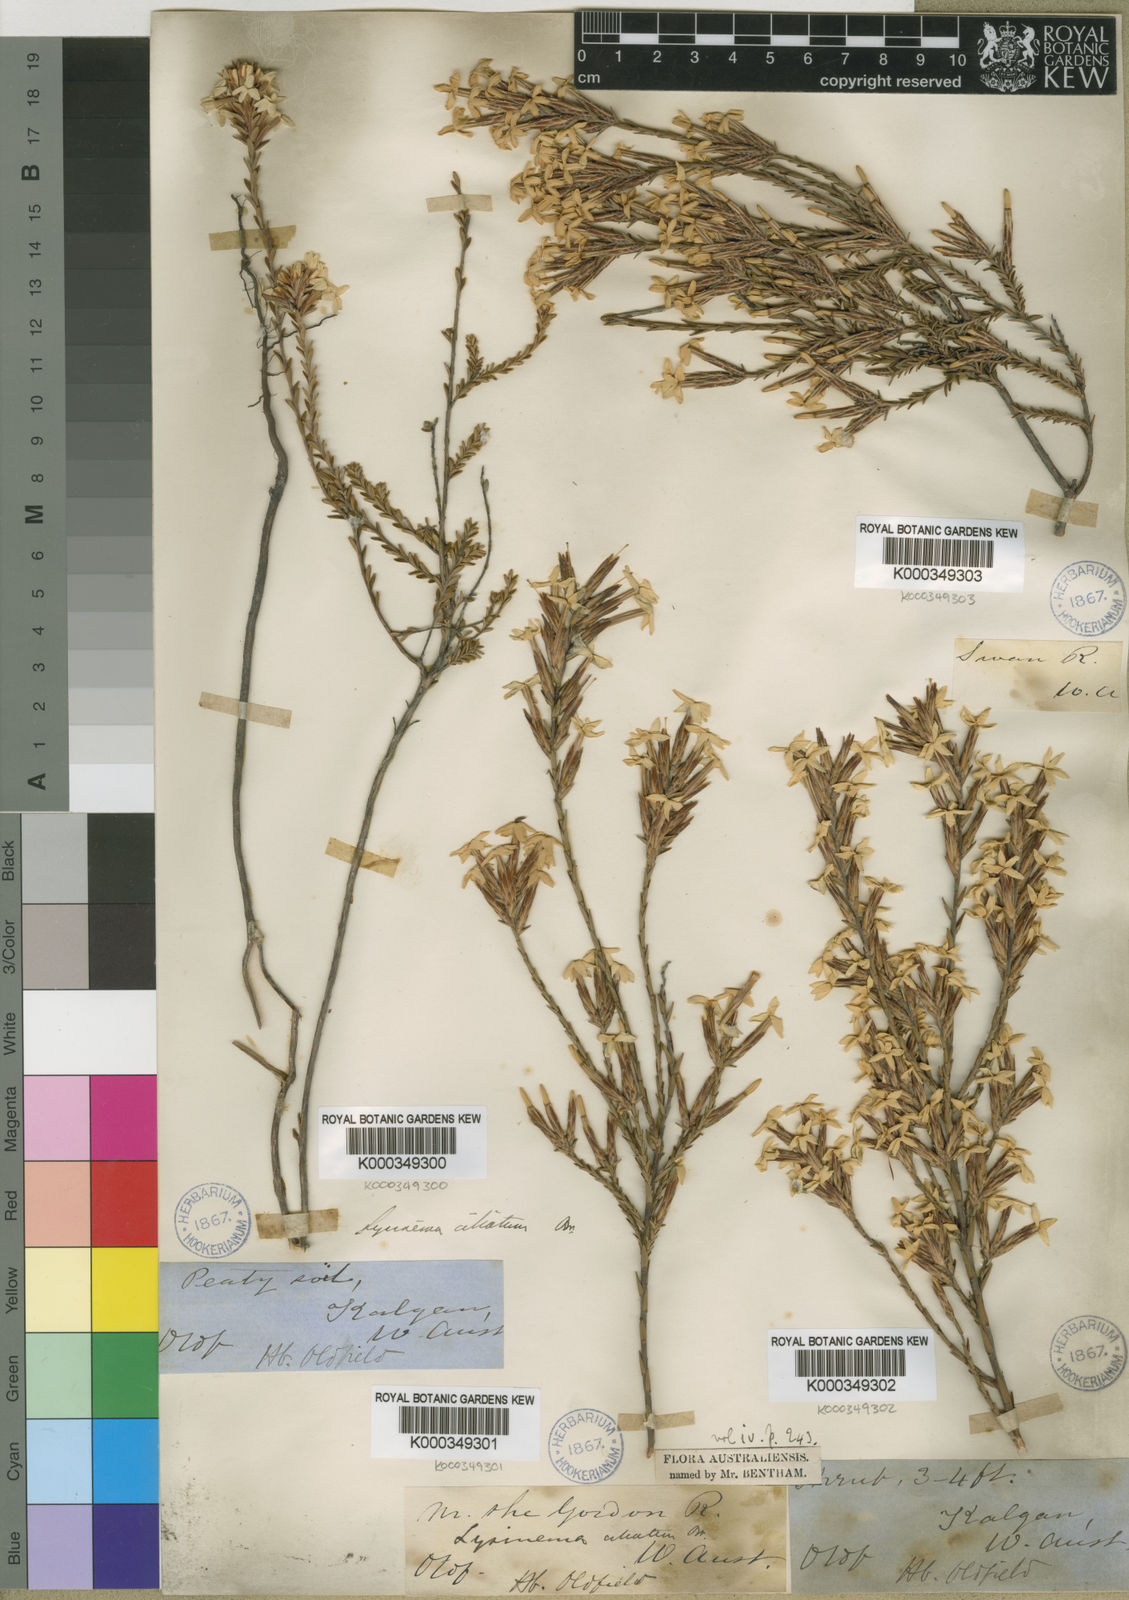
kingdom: Plantae
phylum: Tracheophyta
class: Magnoliopsida
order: Ericales
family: Ericaceae
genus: Lysinema
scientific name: Lysinema ciliatum
